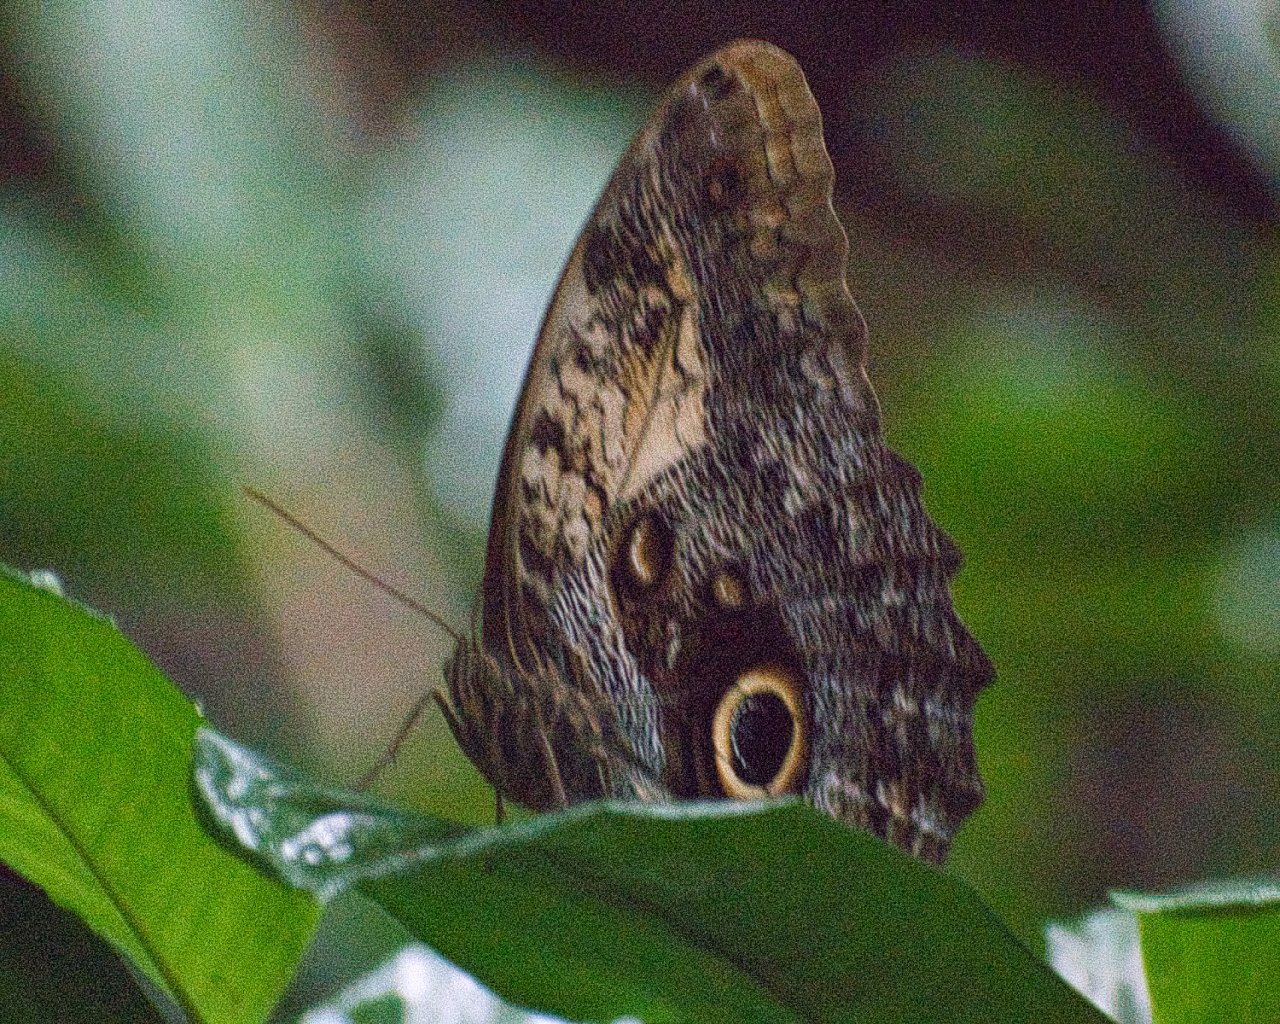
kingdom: Animalia
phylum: Arthropoda
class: Insecta
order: Lepidoptera
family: Nymphalidae
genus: Caligo
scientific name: Caligo telamonius
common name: Pale Owl-Butterfly
